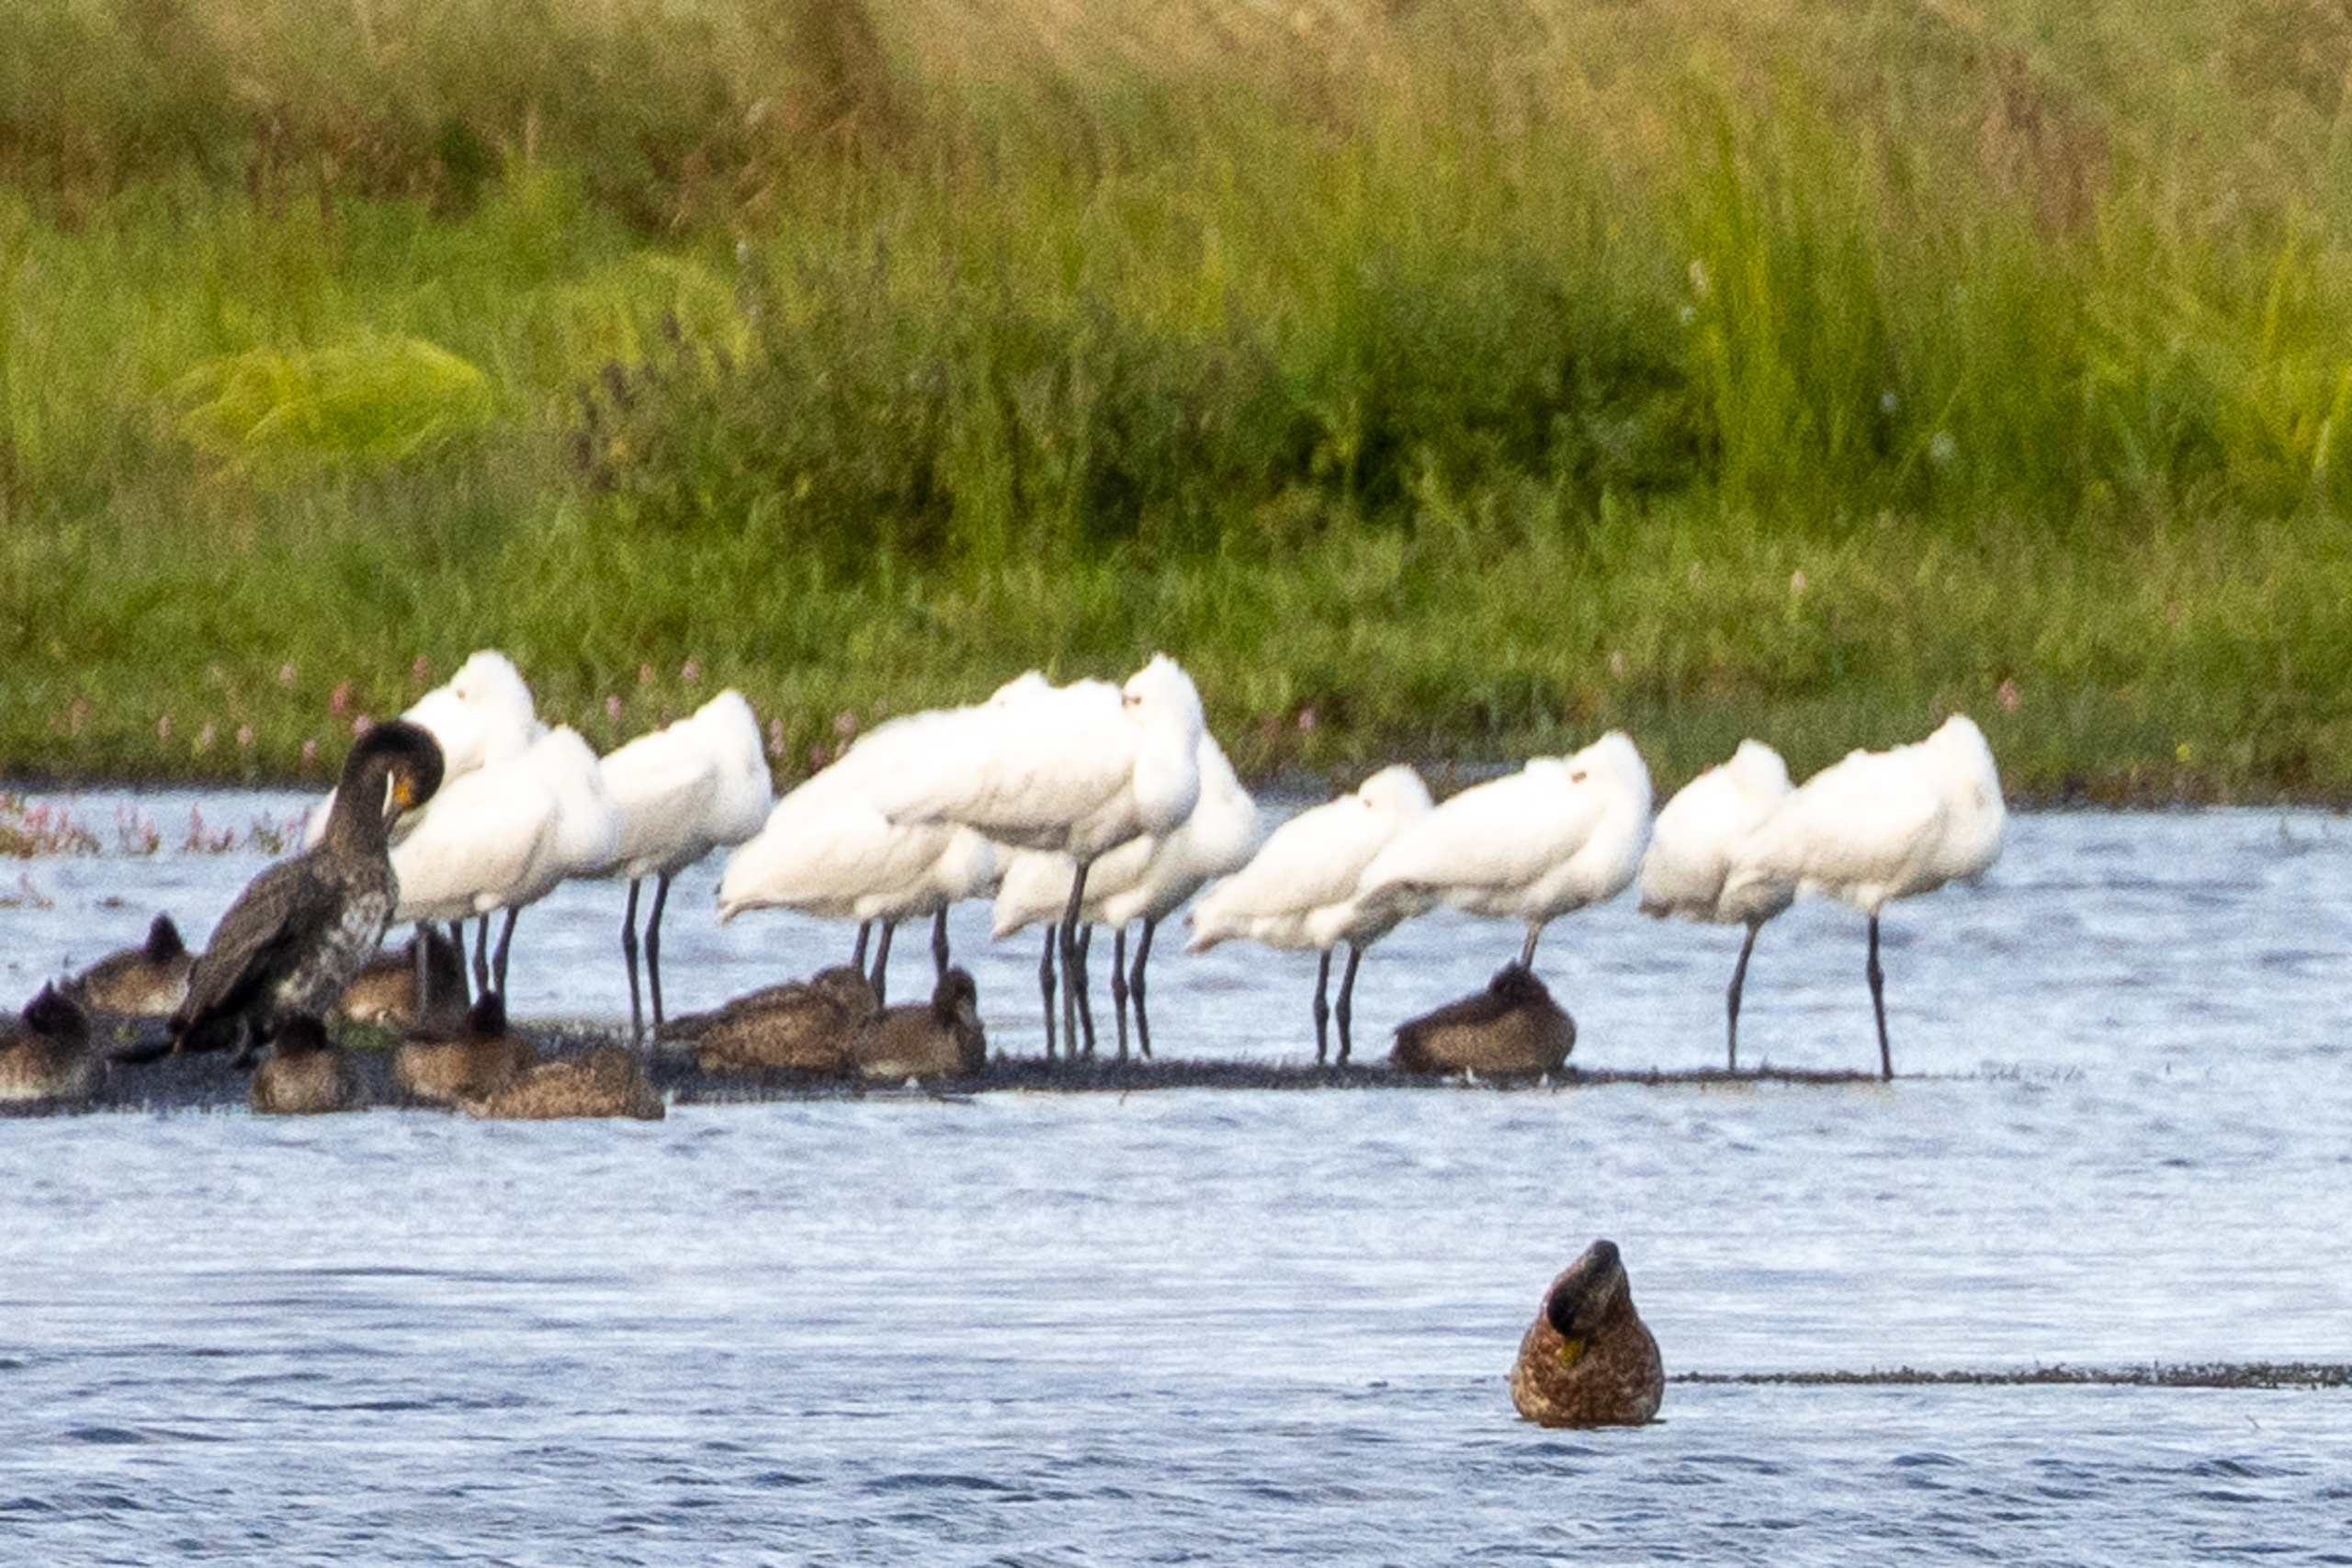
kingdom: Animalia
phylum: Chordata
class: Aves
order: Pelecaniformes
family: Threskiornithidae
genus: Platalea
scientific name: Platalea leucorodia
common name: Skestork
